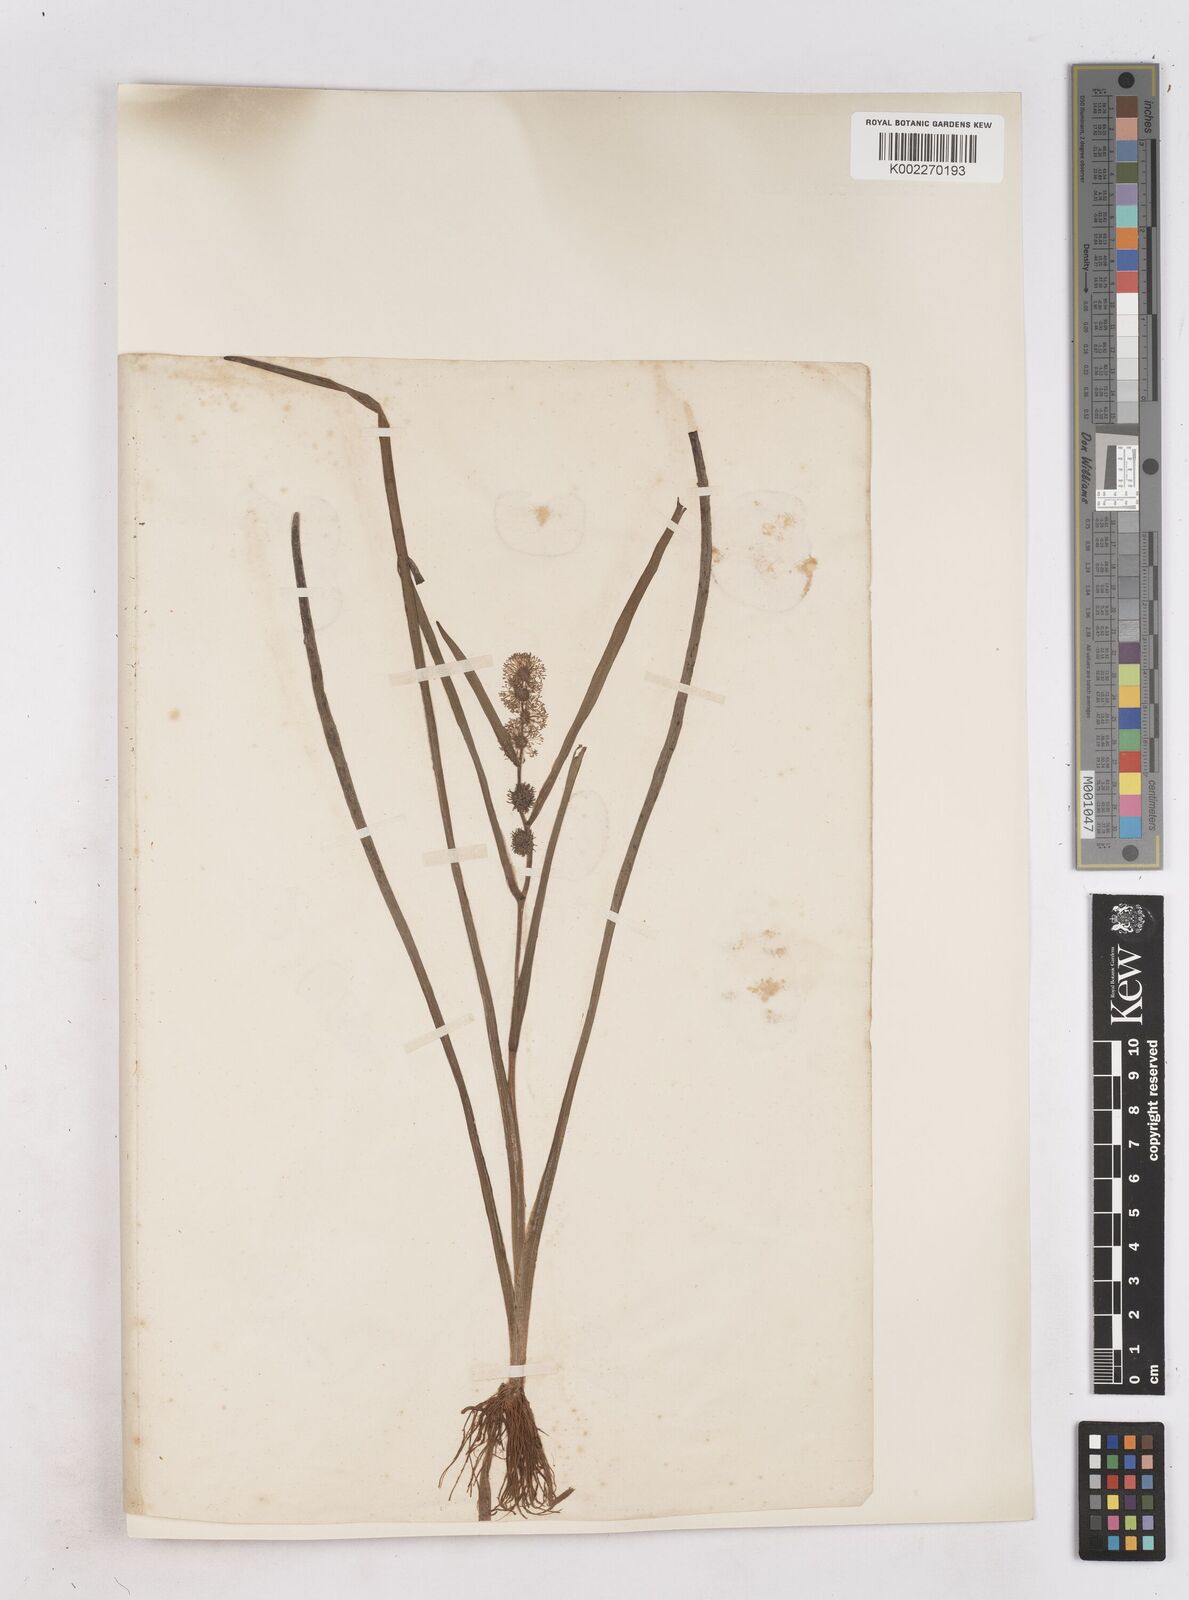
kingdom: Plantae
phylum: Tracheophyta
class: Liliopsida
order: Poales
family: Typhaceae
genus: Sparganium
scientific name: Sparganium emersum
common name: Unbranched bur-reed
